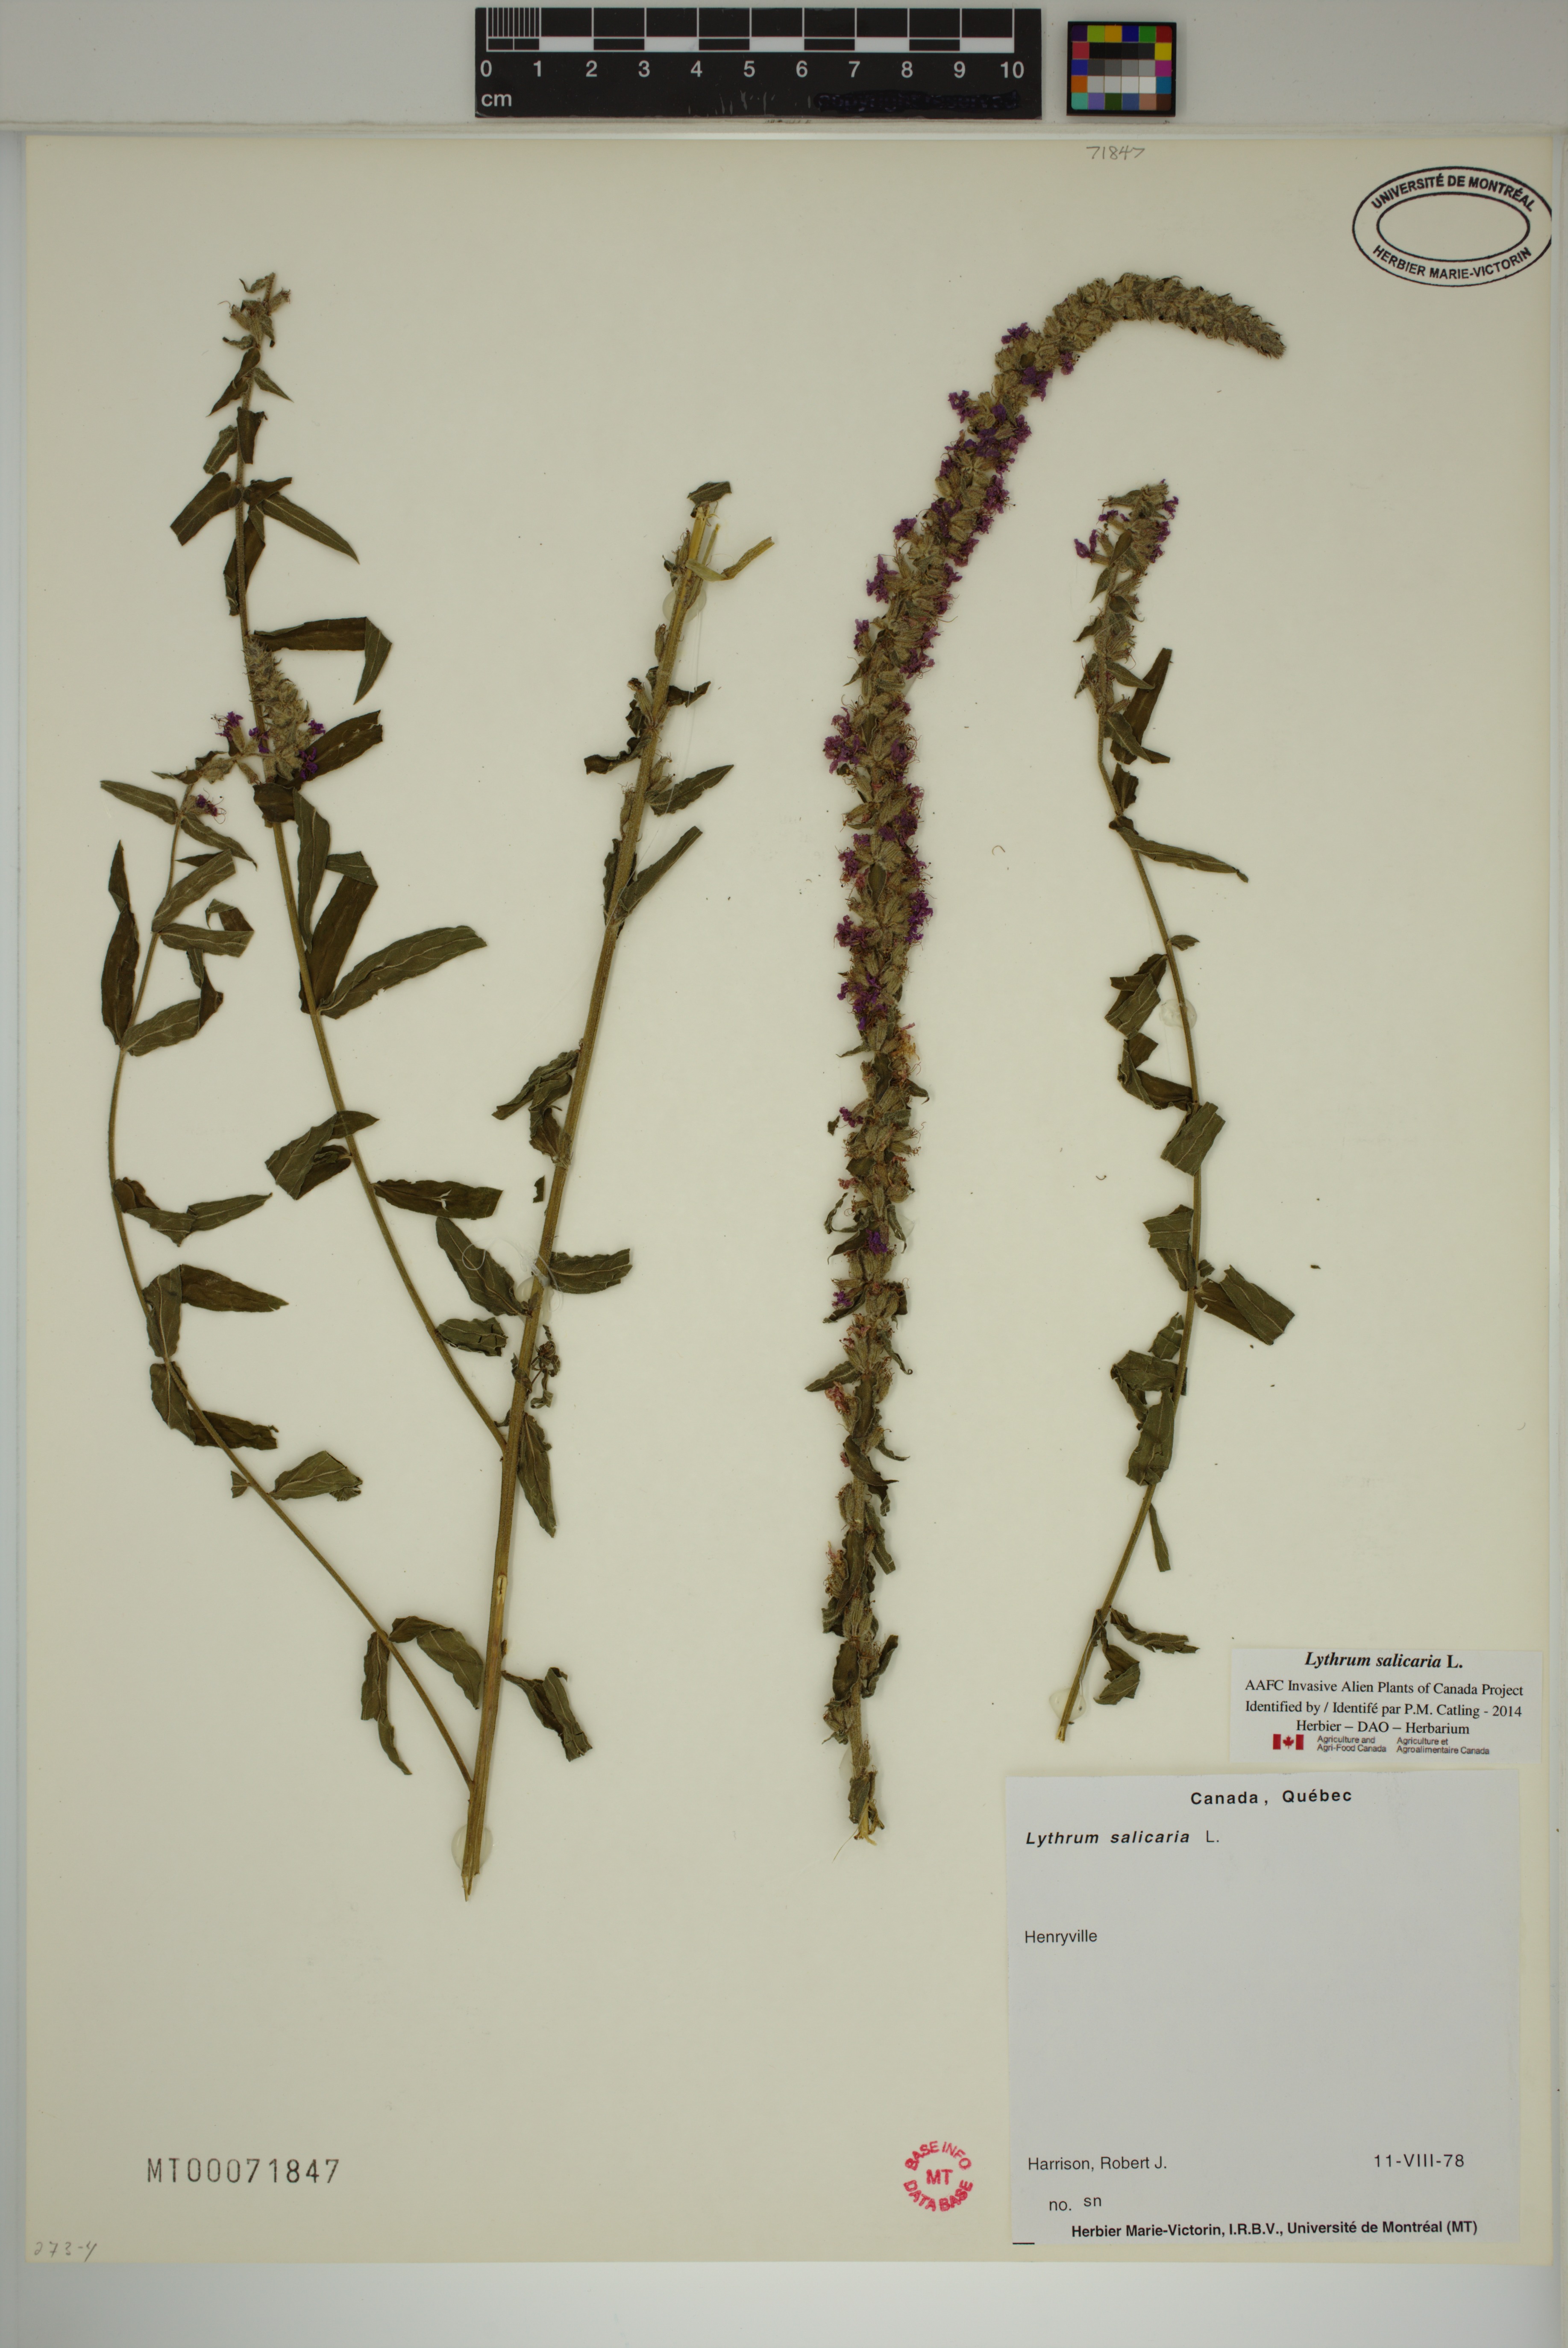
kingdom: Plantae
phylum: Tracheophyta
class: Magnoliopsida
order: Myrtales
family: Lythraceae
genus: Lythrum
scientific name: Lythrum salicaria
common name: Purple loosestrife
